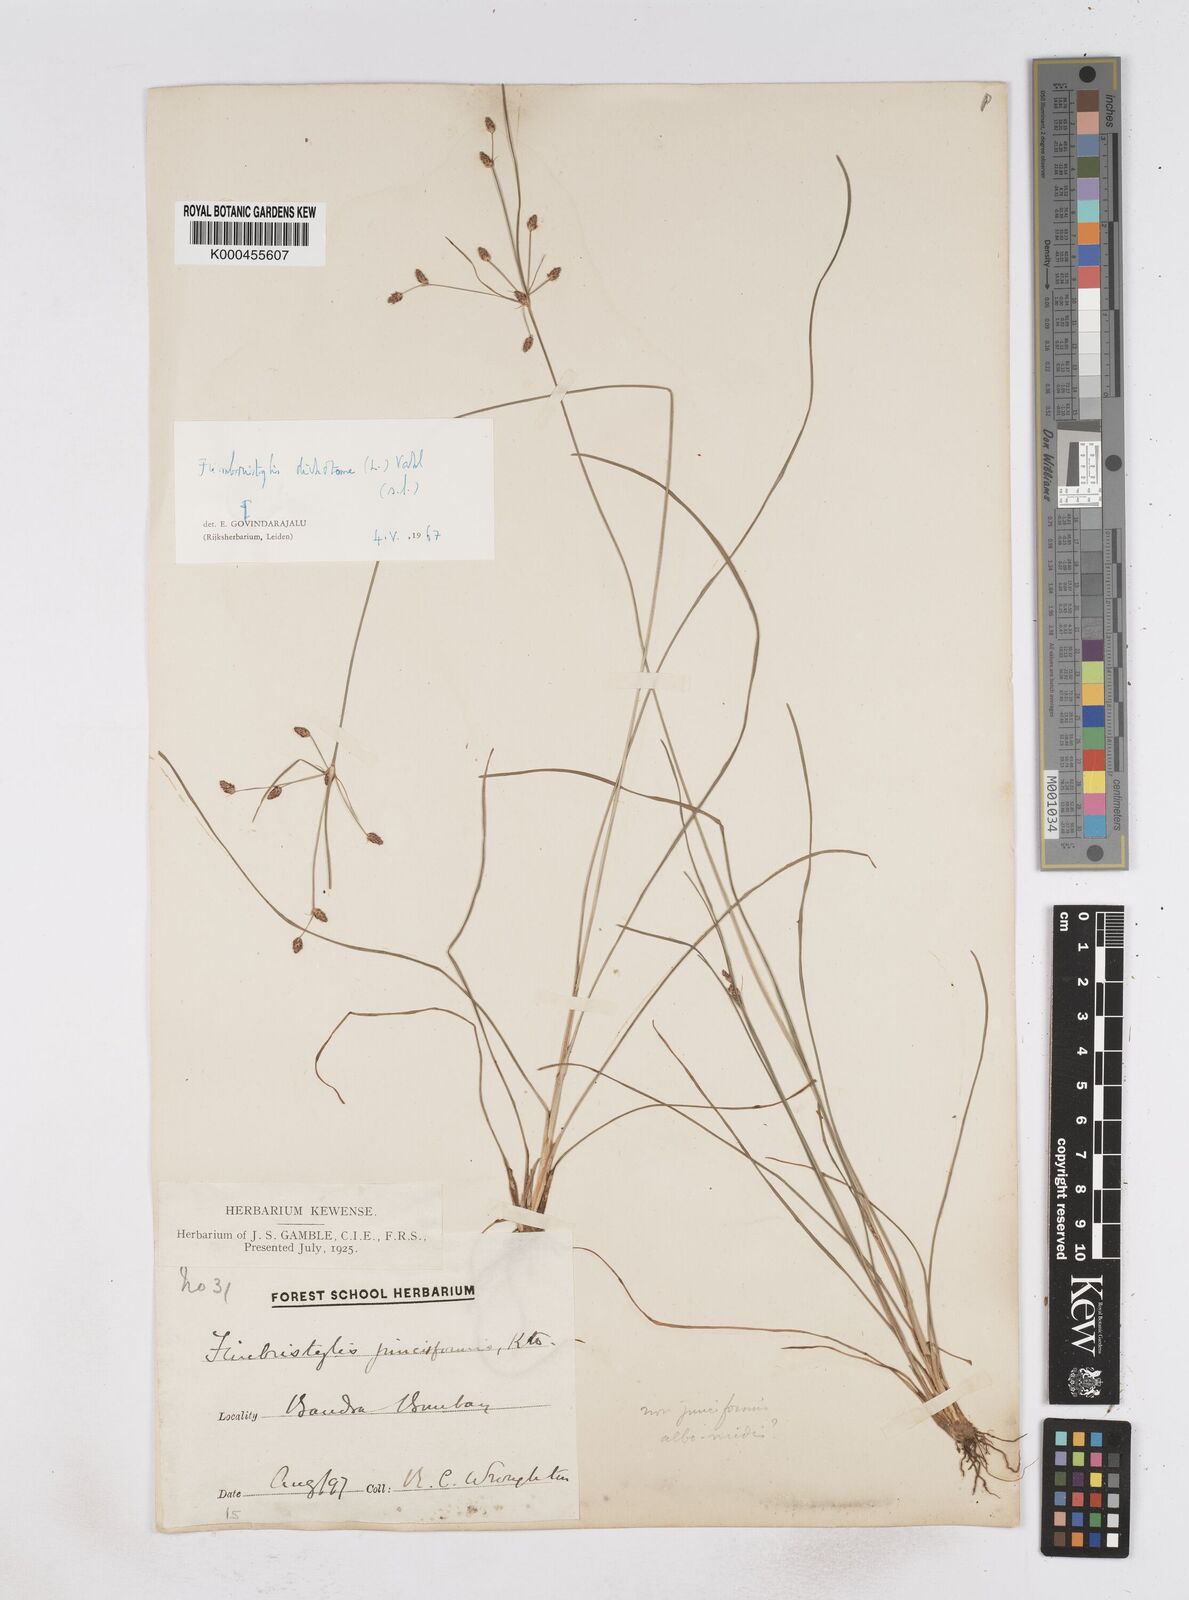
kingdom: Plantae
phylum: Tracheophyta
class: Liliopsida
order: Poales
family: Cyperaceae
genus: Fimbristylis
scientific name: Fimbristylis dichotoma
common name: Forked fimbry
